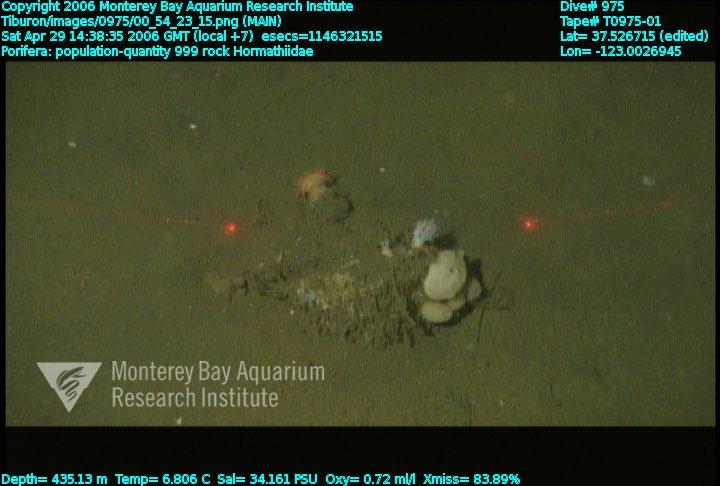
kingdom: Animalia
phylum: Porifera
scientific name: Porifera
